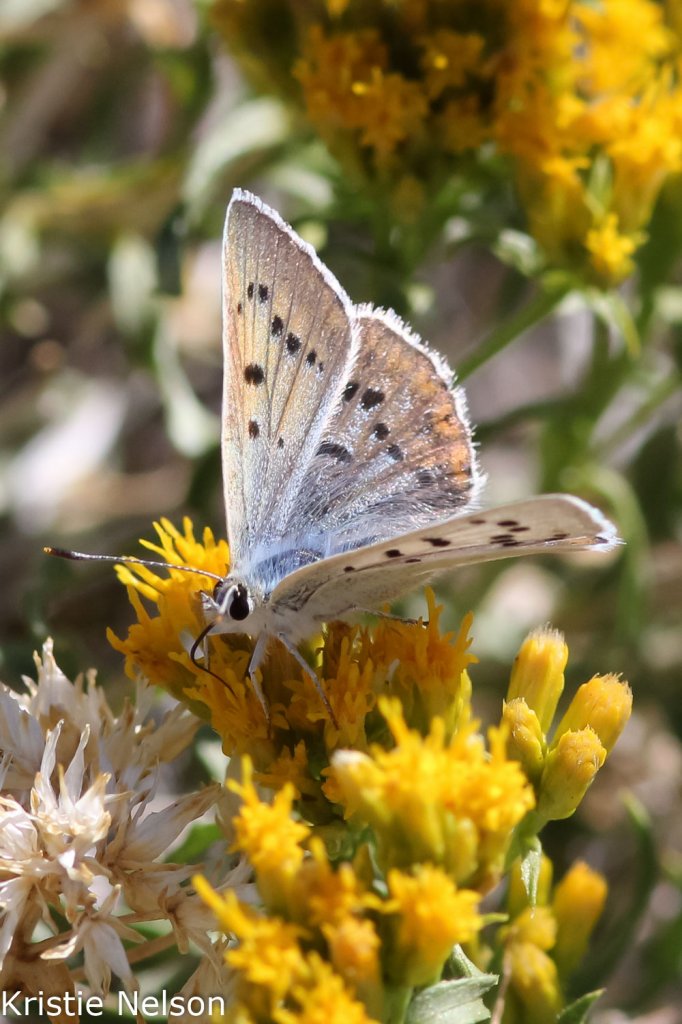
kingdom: Animalia
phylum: Arthropoda
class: Insecta
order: Lepidoptera
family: Lycaenidae
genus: Lycaena
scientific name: Lycaena heteronea
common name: Blue Copper
